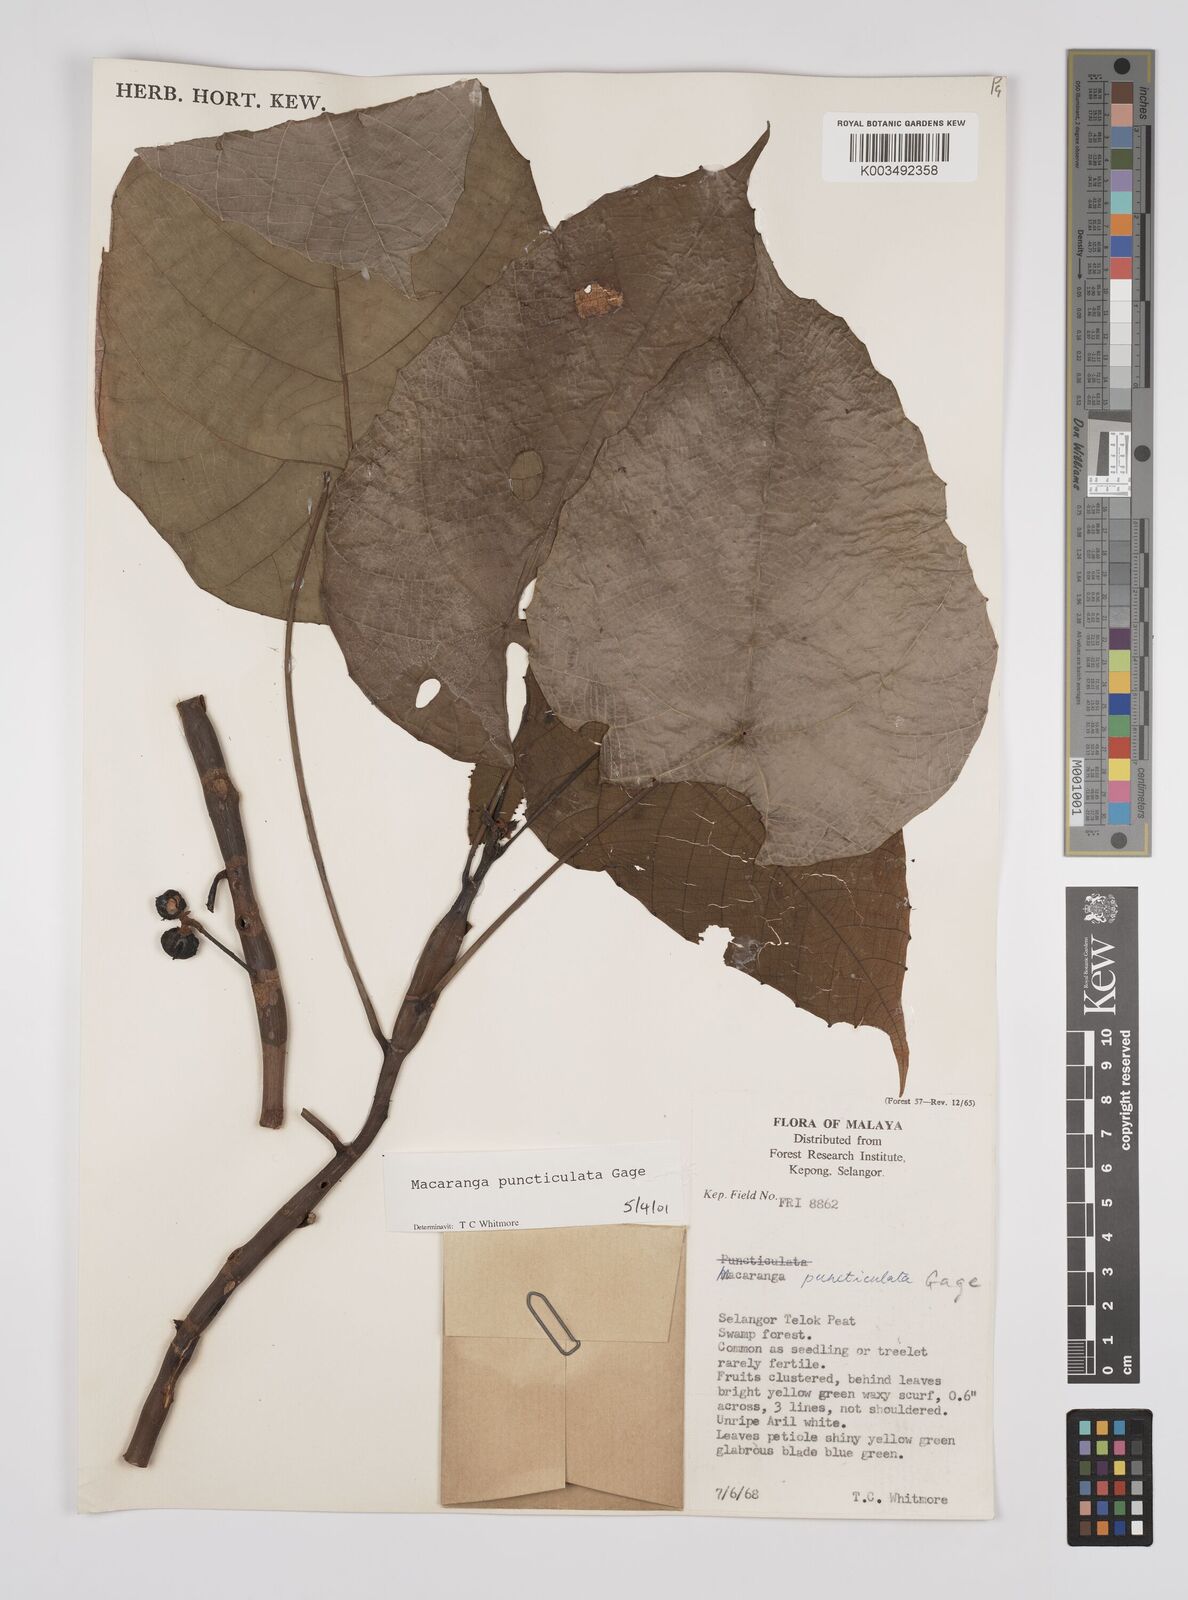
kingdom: Plantae
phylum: Tracheophyta
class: Magnoliopsida
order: Malpighiales
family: Euphorbiaceae
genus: Macaranga
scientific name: Macaranga puncticulata
